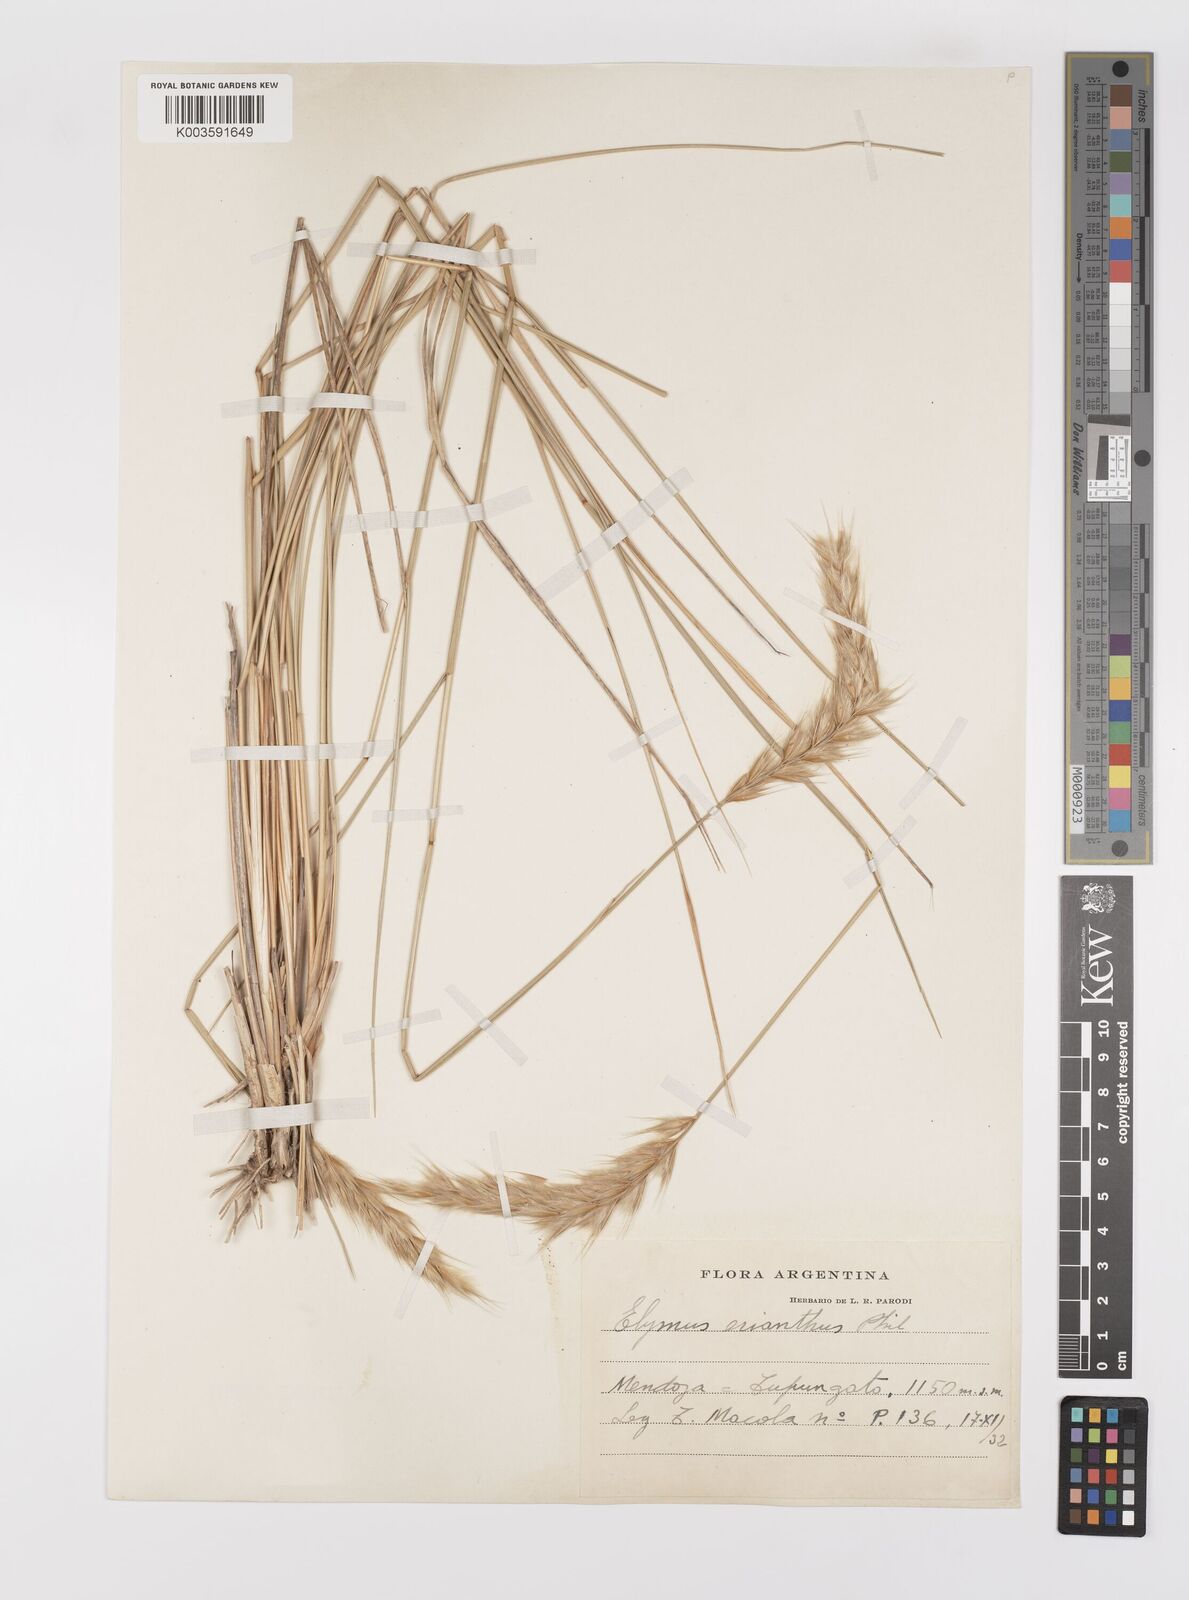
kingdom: Plantae
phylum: Tracheophyta
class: Liliopsida
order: Poales
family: Poaceae
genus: Leymus
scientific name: Leymus erianthus
